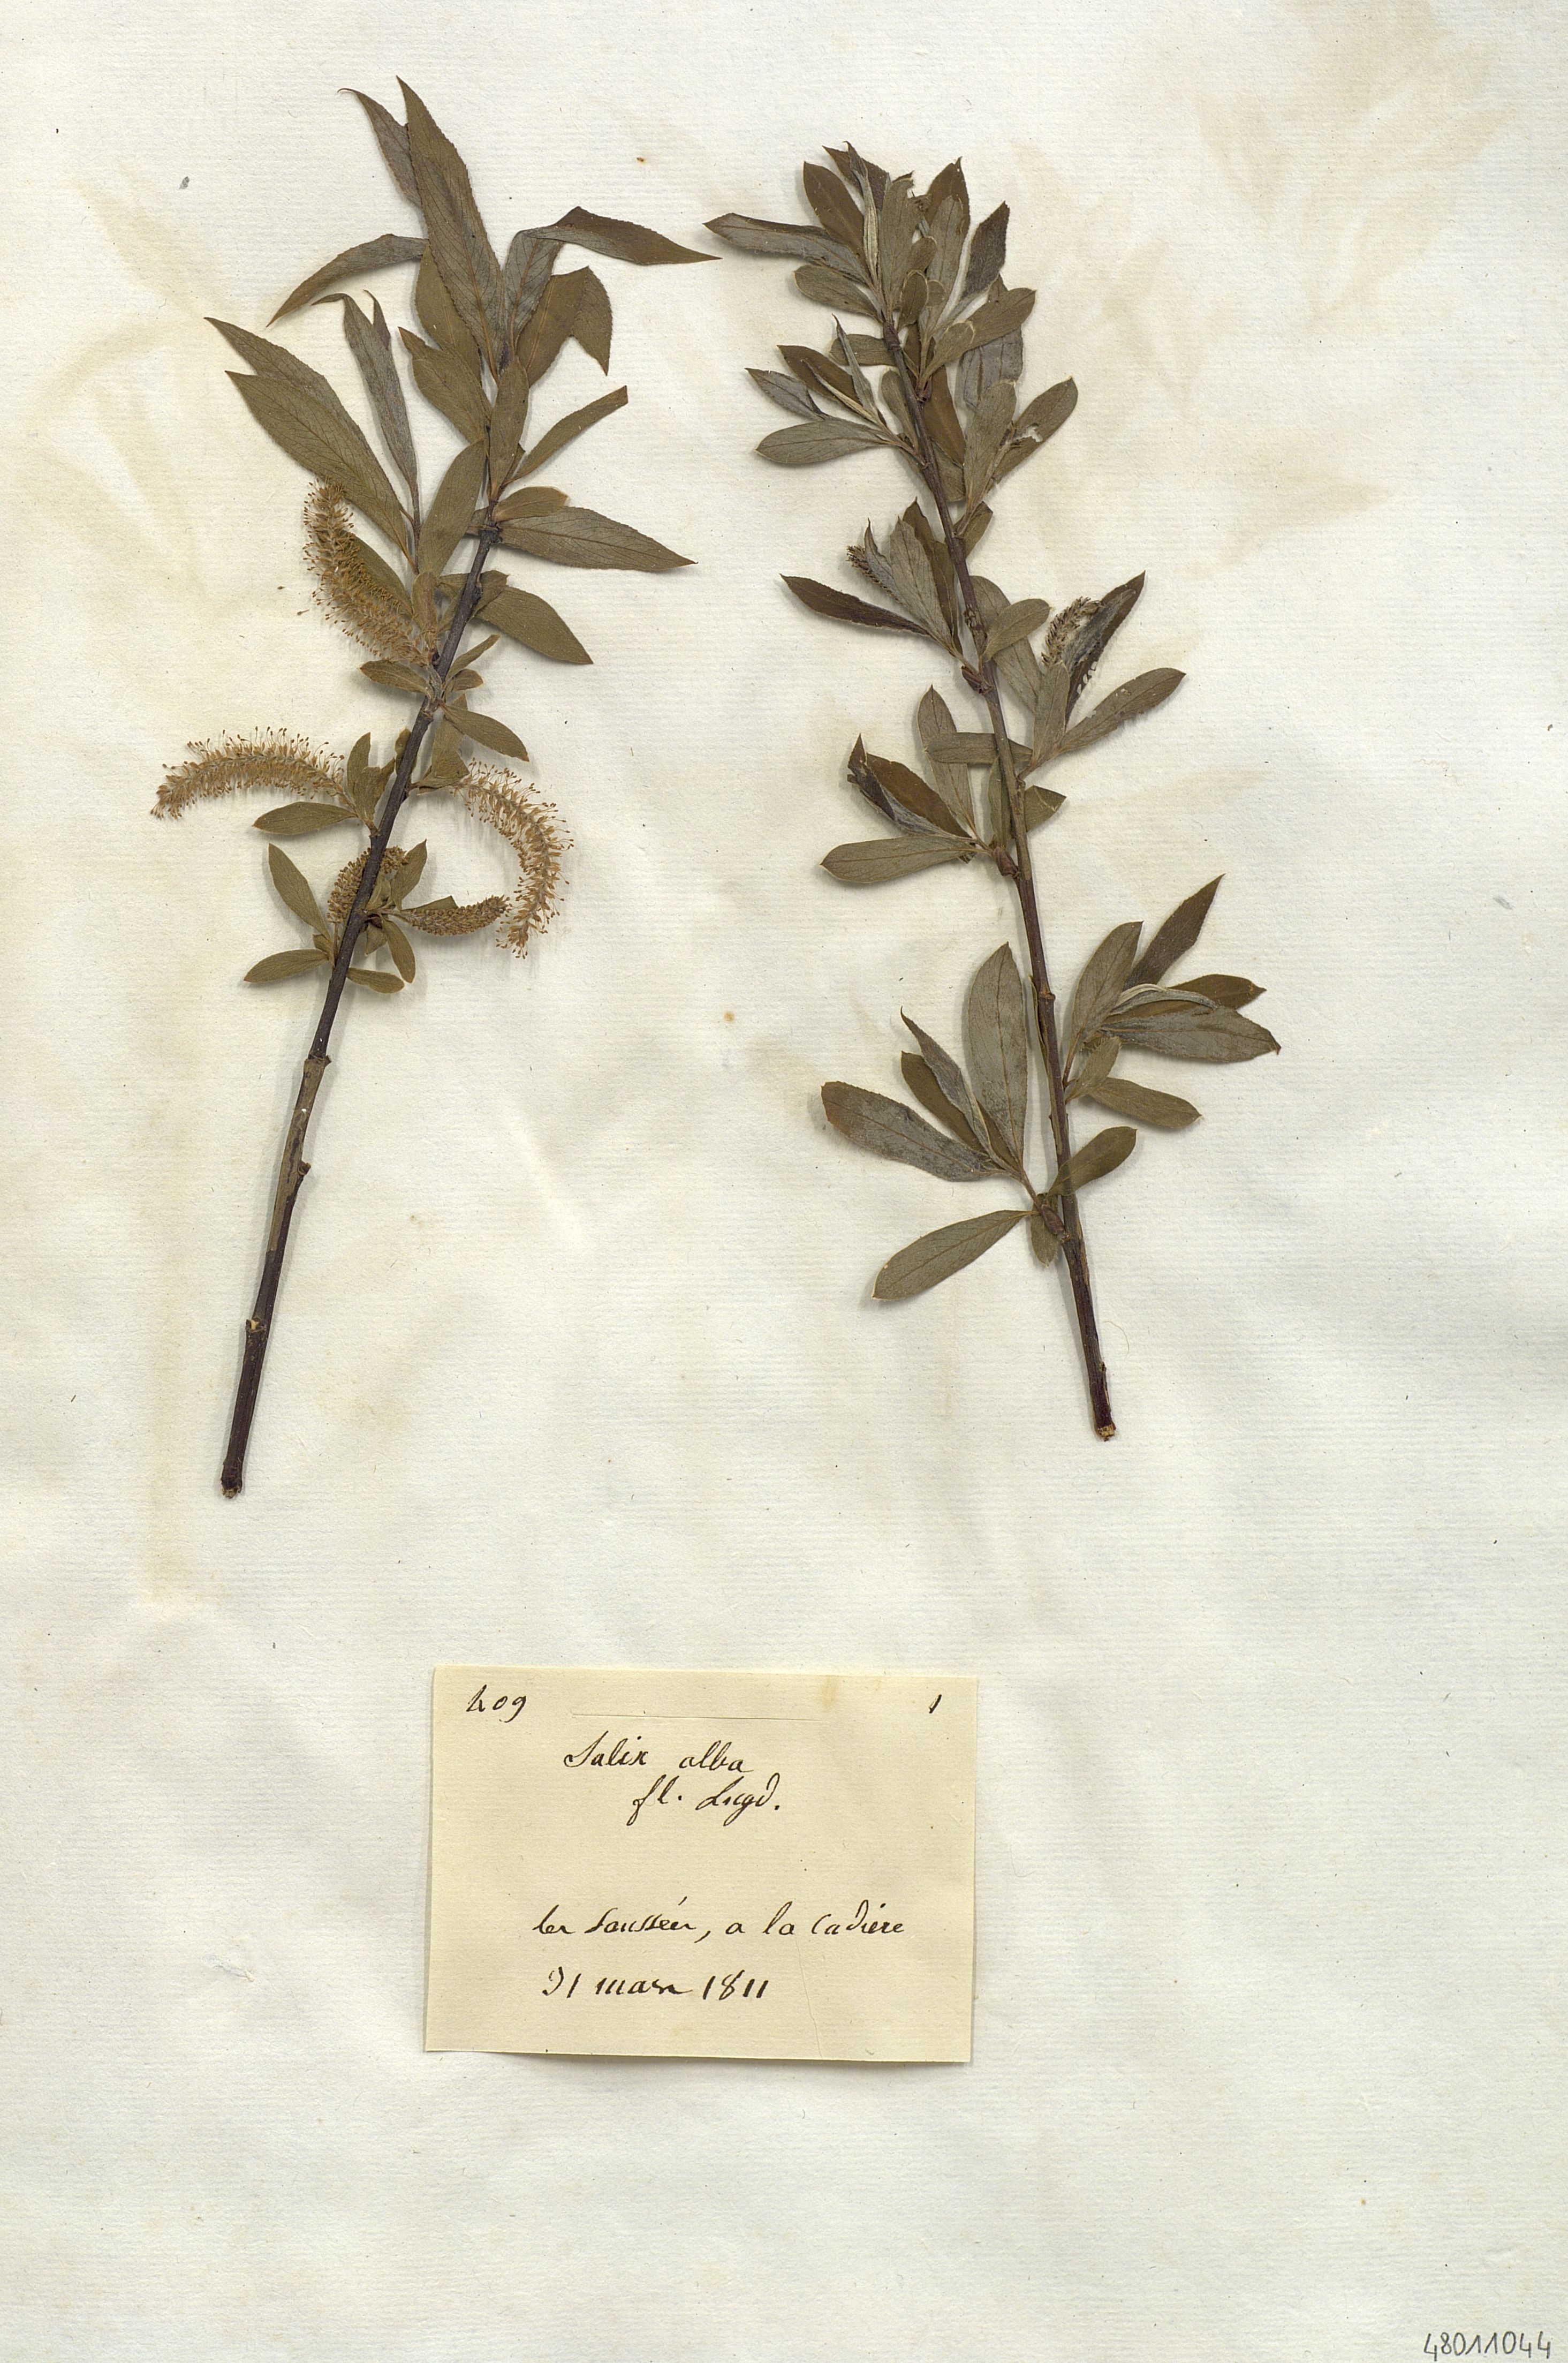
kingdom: Plantae
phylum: Tracheophyta
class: Magnoliopsida
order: Malpighiales
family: Salicaceae
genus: Salix
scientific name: Salix alba
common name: White willow
